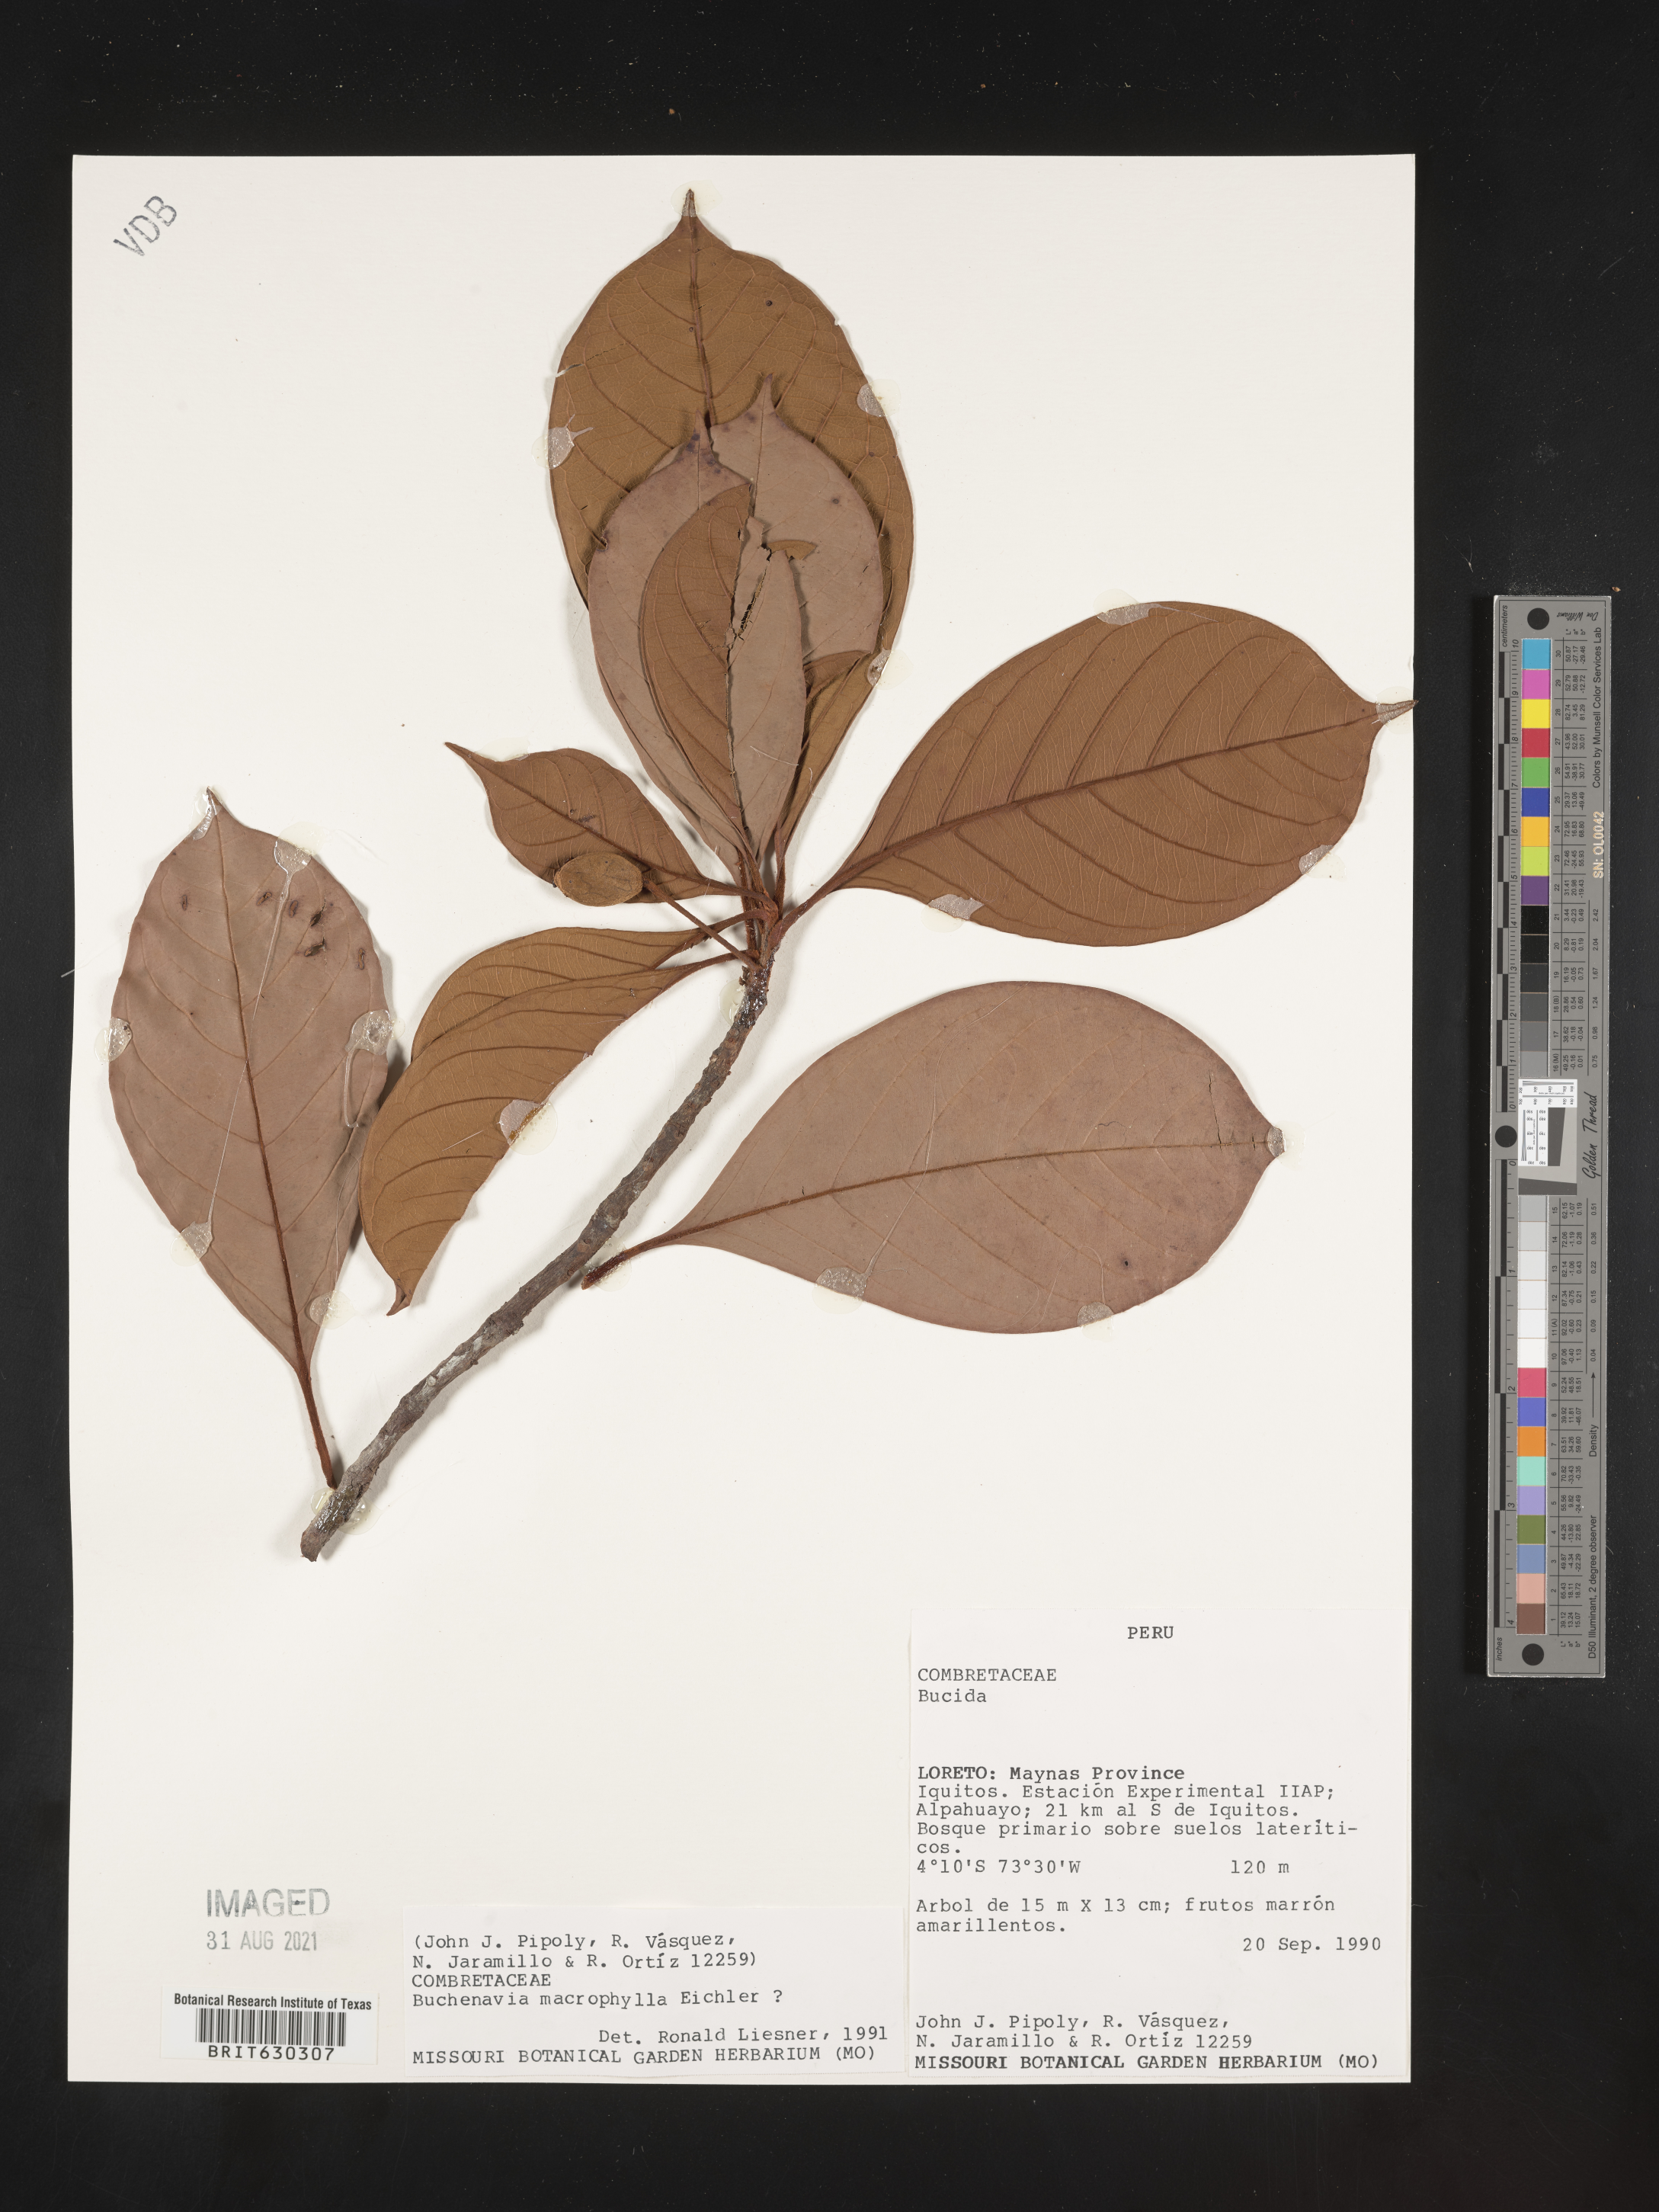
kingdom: Plantae
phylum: Tracheophyta
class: Magnoliopsida
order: Myrtales
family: Combretaceae
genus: Terminalia
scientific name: Terminalia macrophylla
